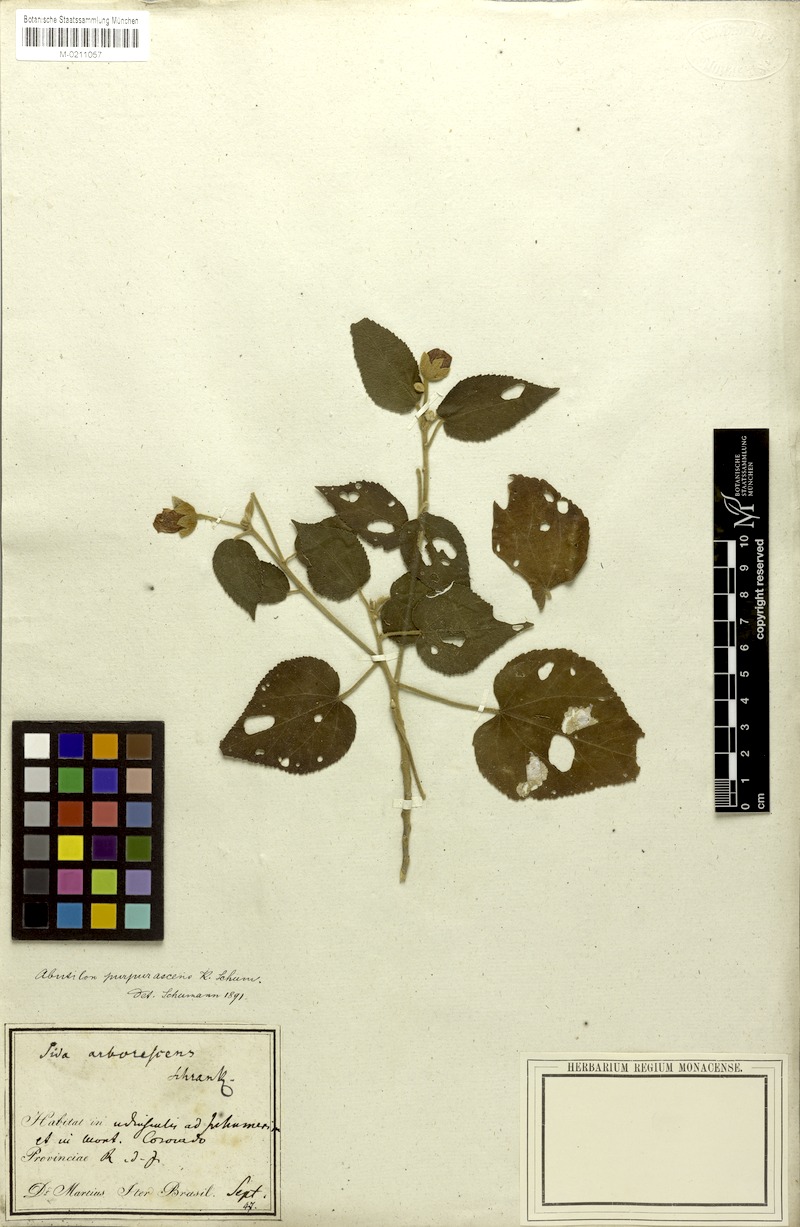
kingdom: Plantae
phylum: Tracheophyta
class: Magnoliopsida
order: Malvales
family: Malvaceae
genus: Bakeridesia
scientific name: Bakeridesia esculenta
